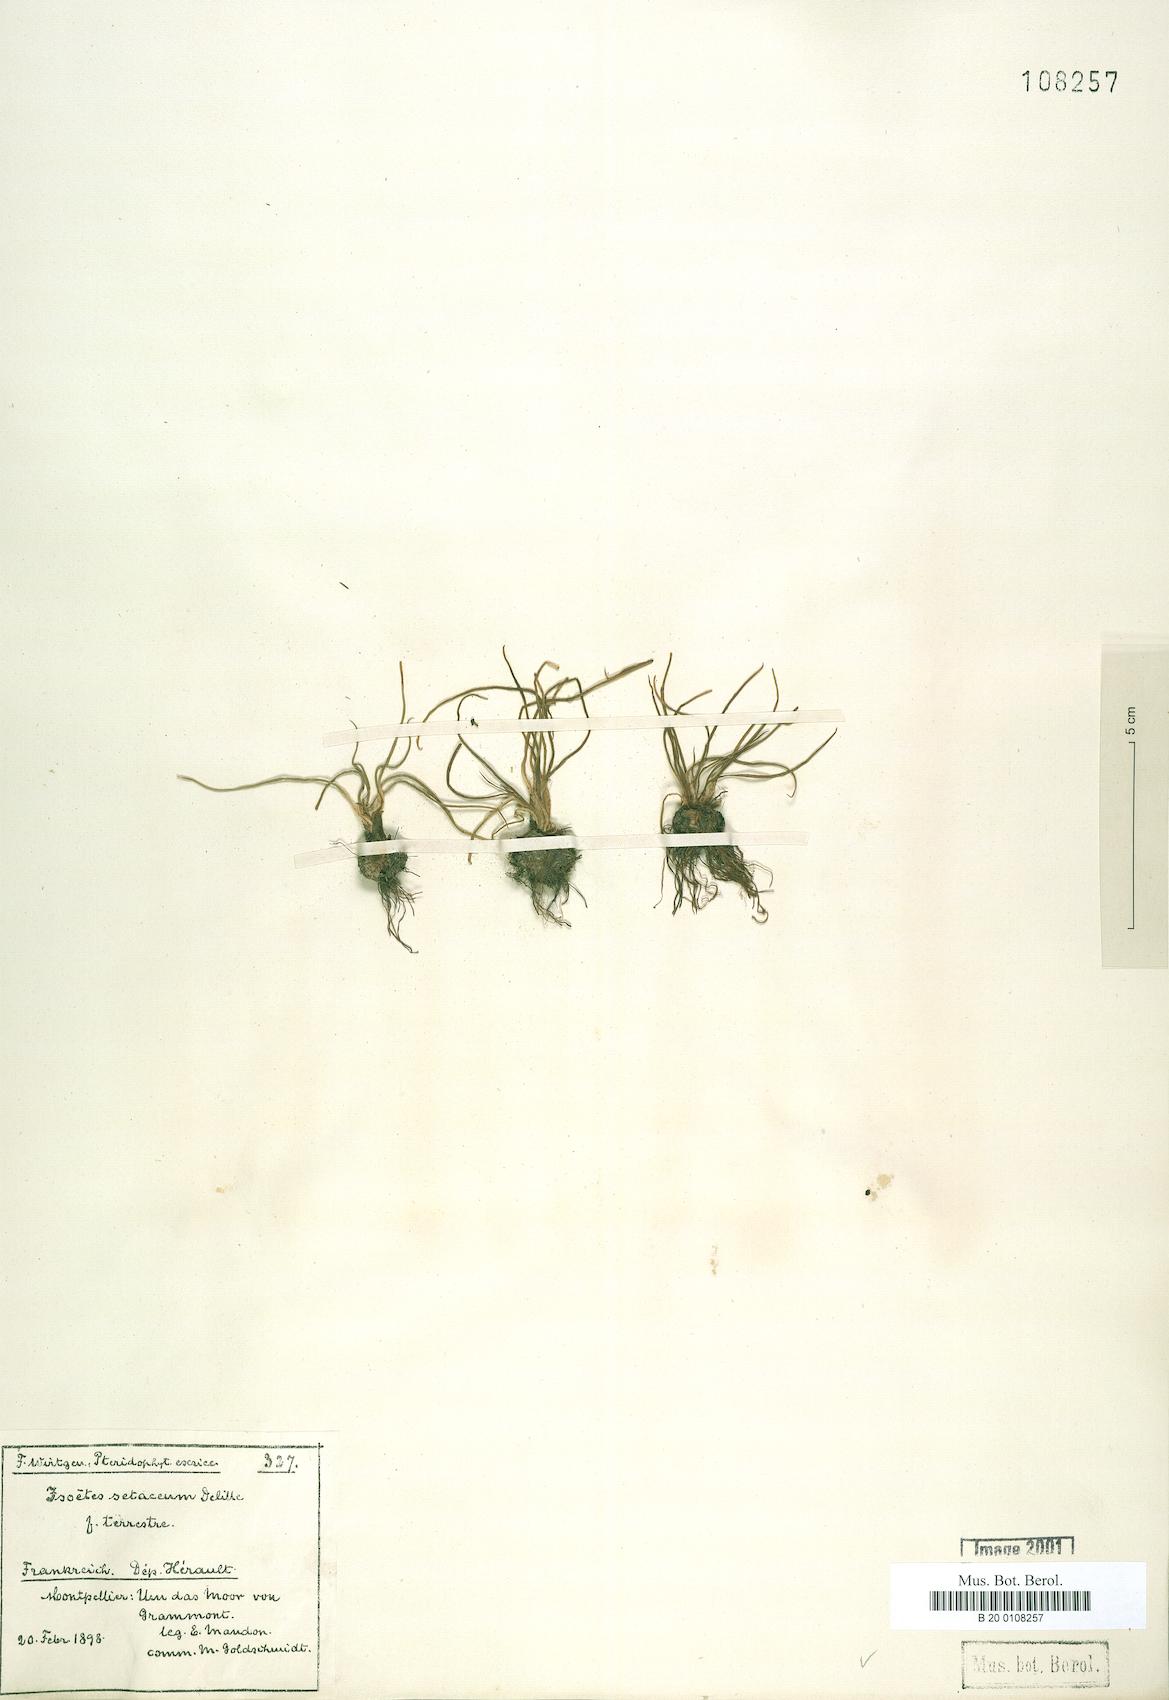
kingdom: Plantae
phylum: Tracheophyta
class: Lycopodiopsida
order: Isoetales
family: Isoetaceae
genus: Isoetes
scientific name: Isoetes lacustris
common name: Common quillwort
